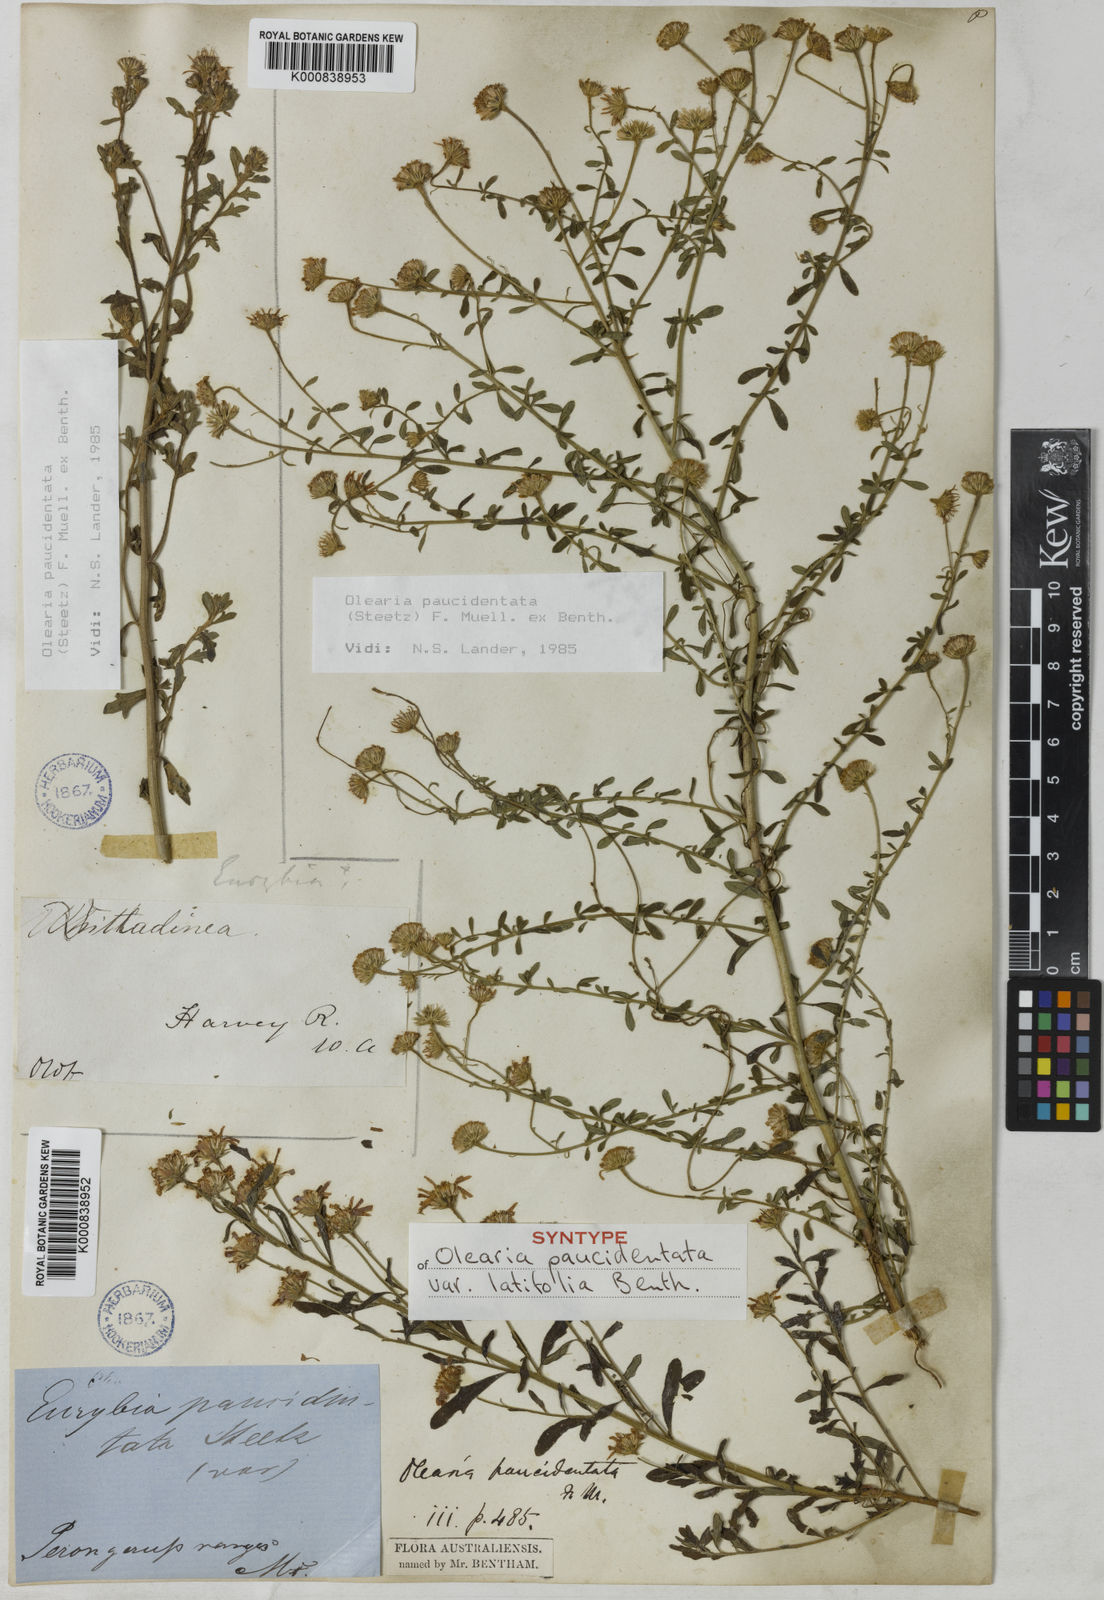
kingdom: Plantae
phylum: Tracheophyta
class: Magnoliopsida
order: Asterales
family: Asteraceae
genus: Olearia
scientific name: Olearia paucidentata
